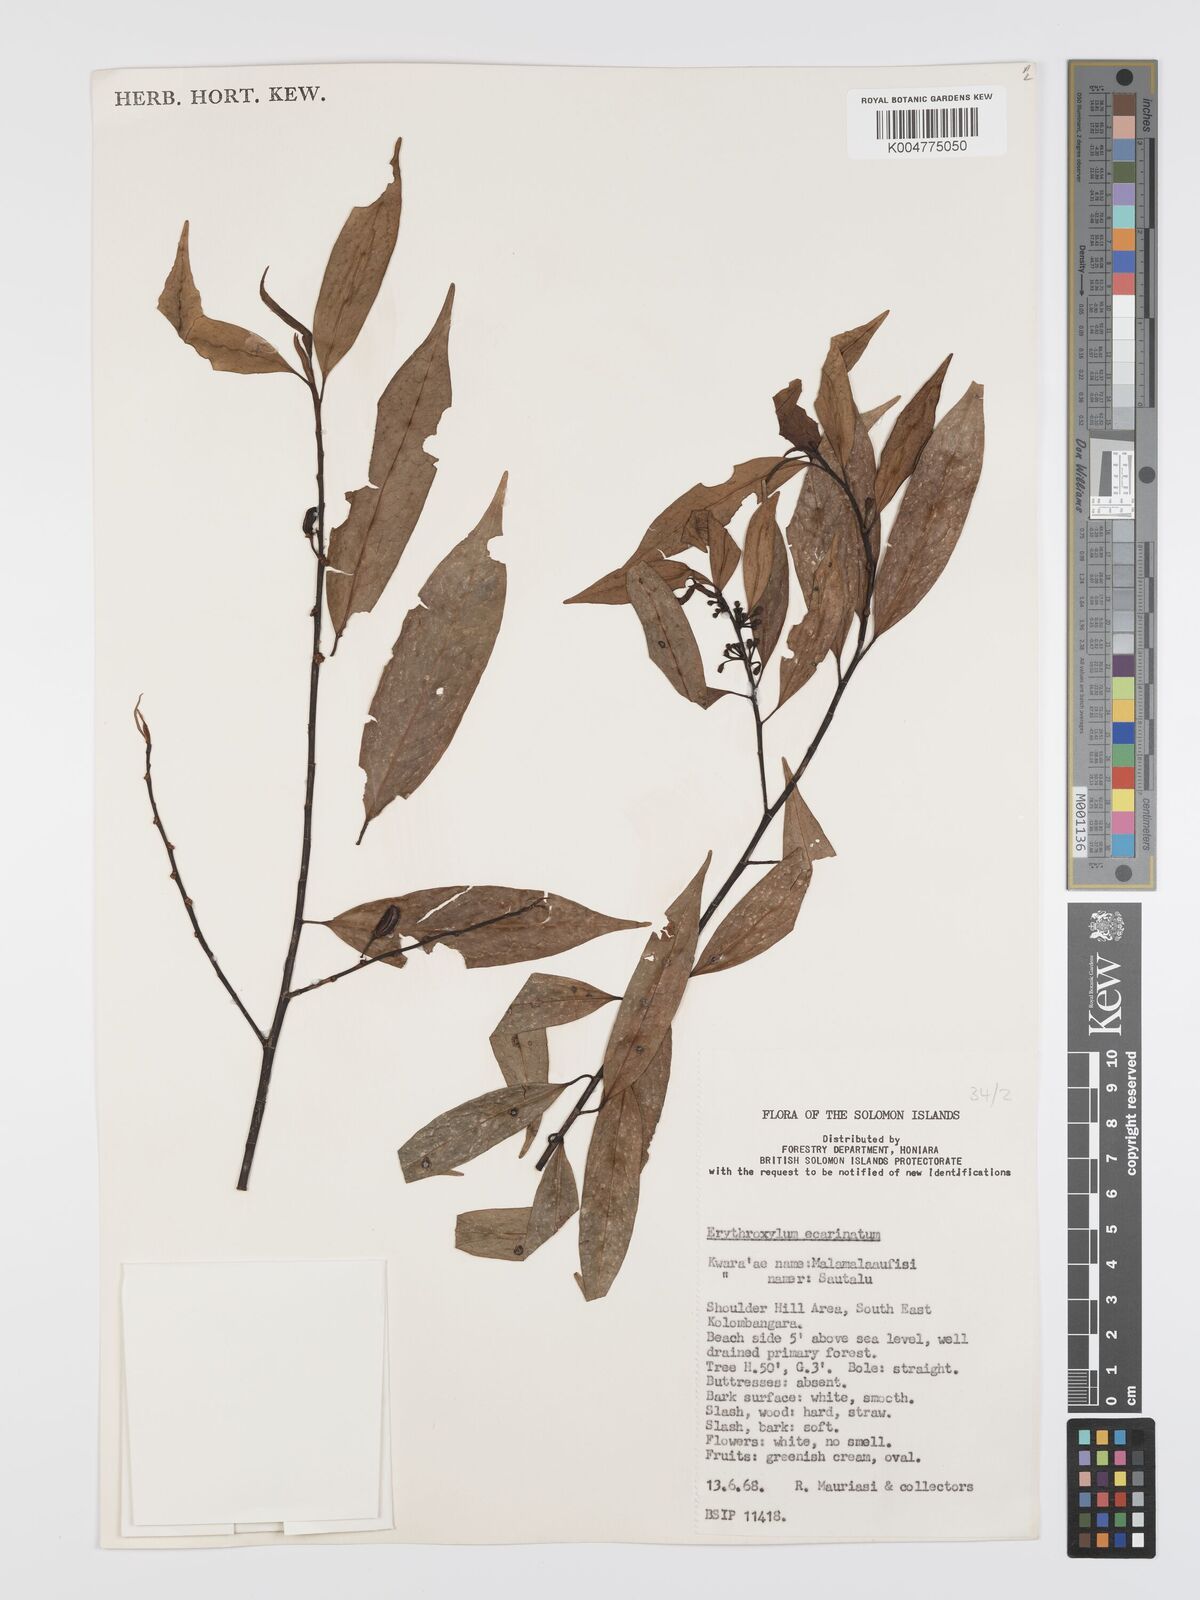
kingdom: Plantae
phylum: Tracheophyta
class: Magnoliopsida
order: Malpighiales
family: Erythroxylaceae
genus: Erythroxylum
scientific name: Erythroxylum ecarinatum
